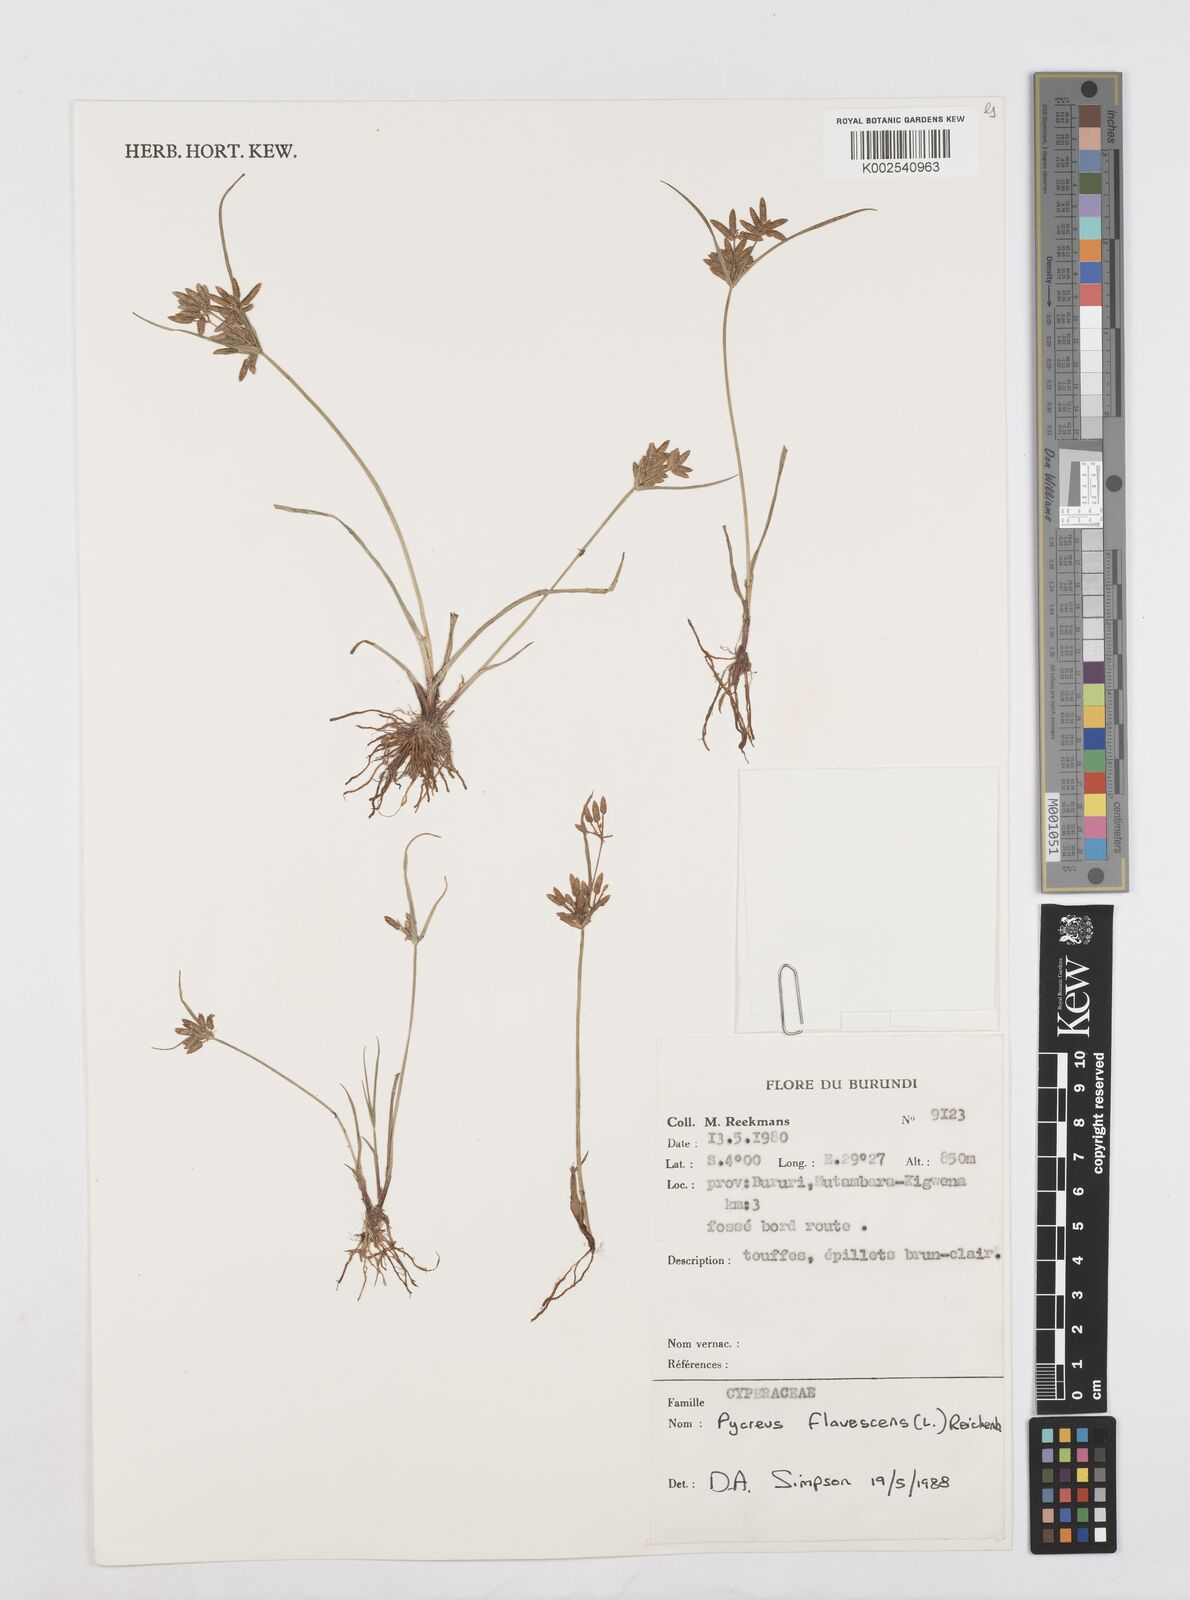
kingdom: Plantae
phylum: Tracheophyta
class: Liliopsida
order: Poales
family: Cyperaceae
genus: Cyperus
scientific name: Cyperus flavescens
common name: Yellow galingale
